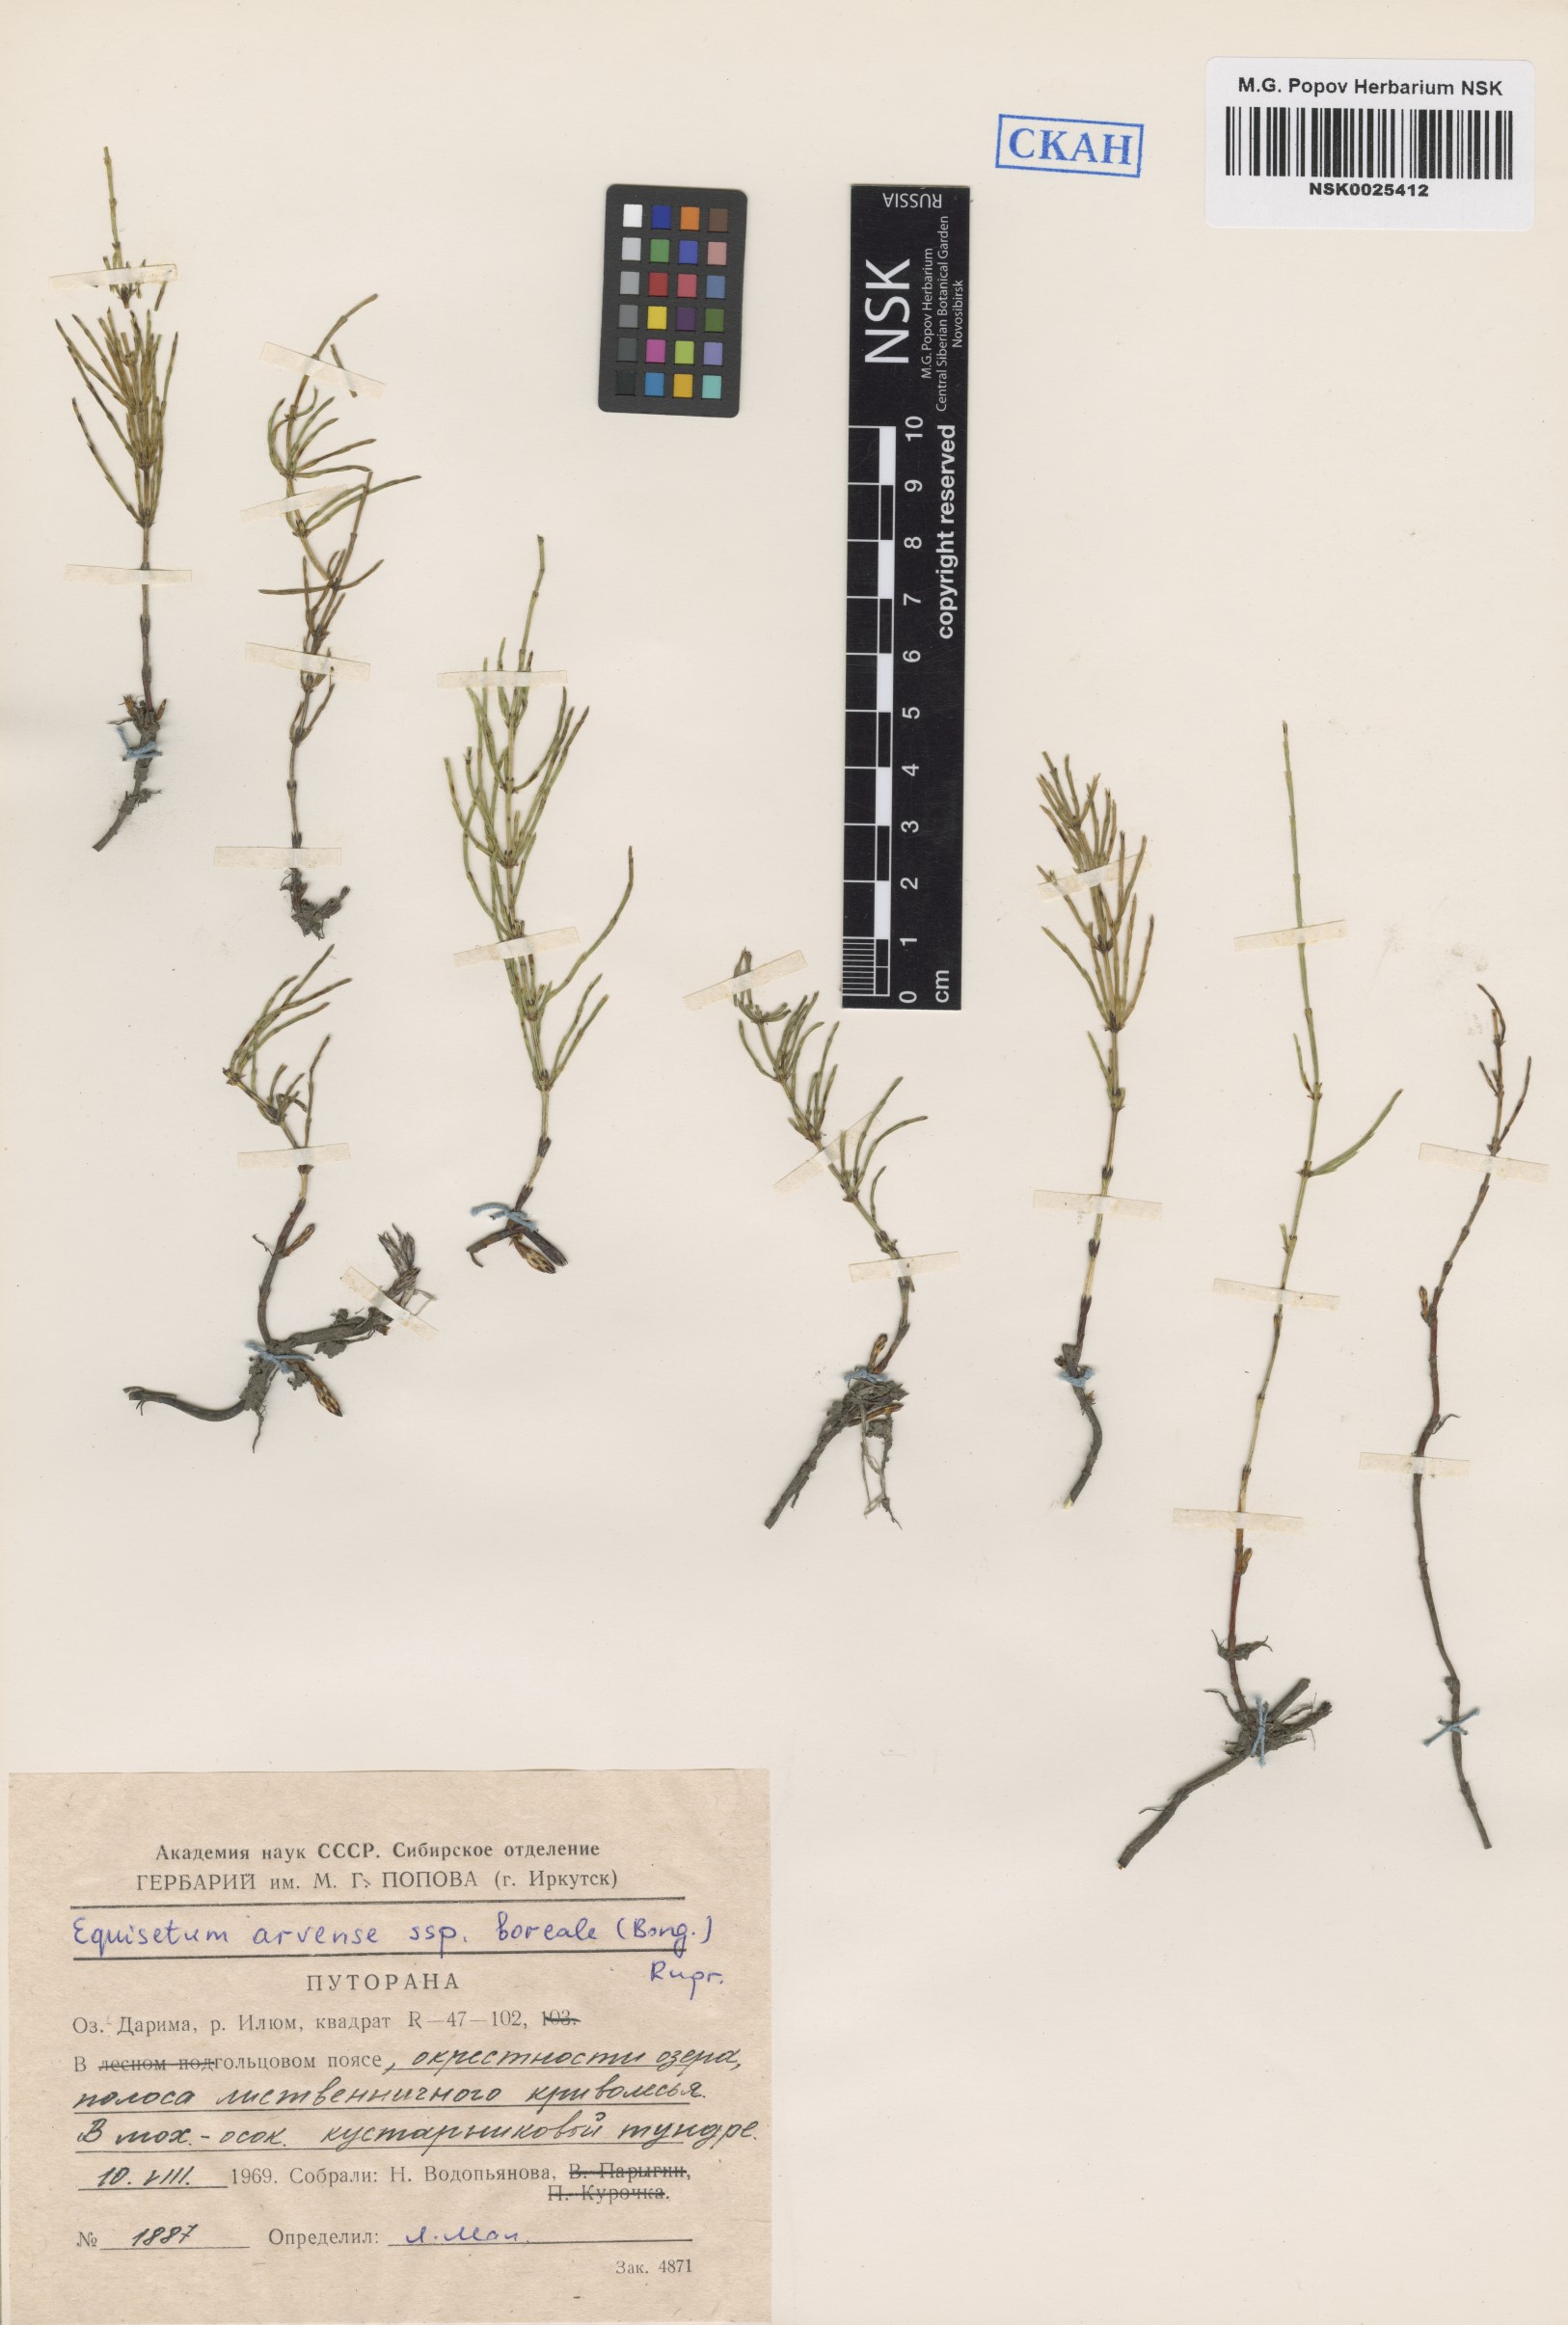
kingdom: Plantae
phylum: Tracheophyta
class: Polypodiopsida
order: Equisetales
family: Equisetaceae
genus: Equisetum
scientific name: Equisetum arvense
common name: Field horsetail
